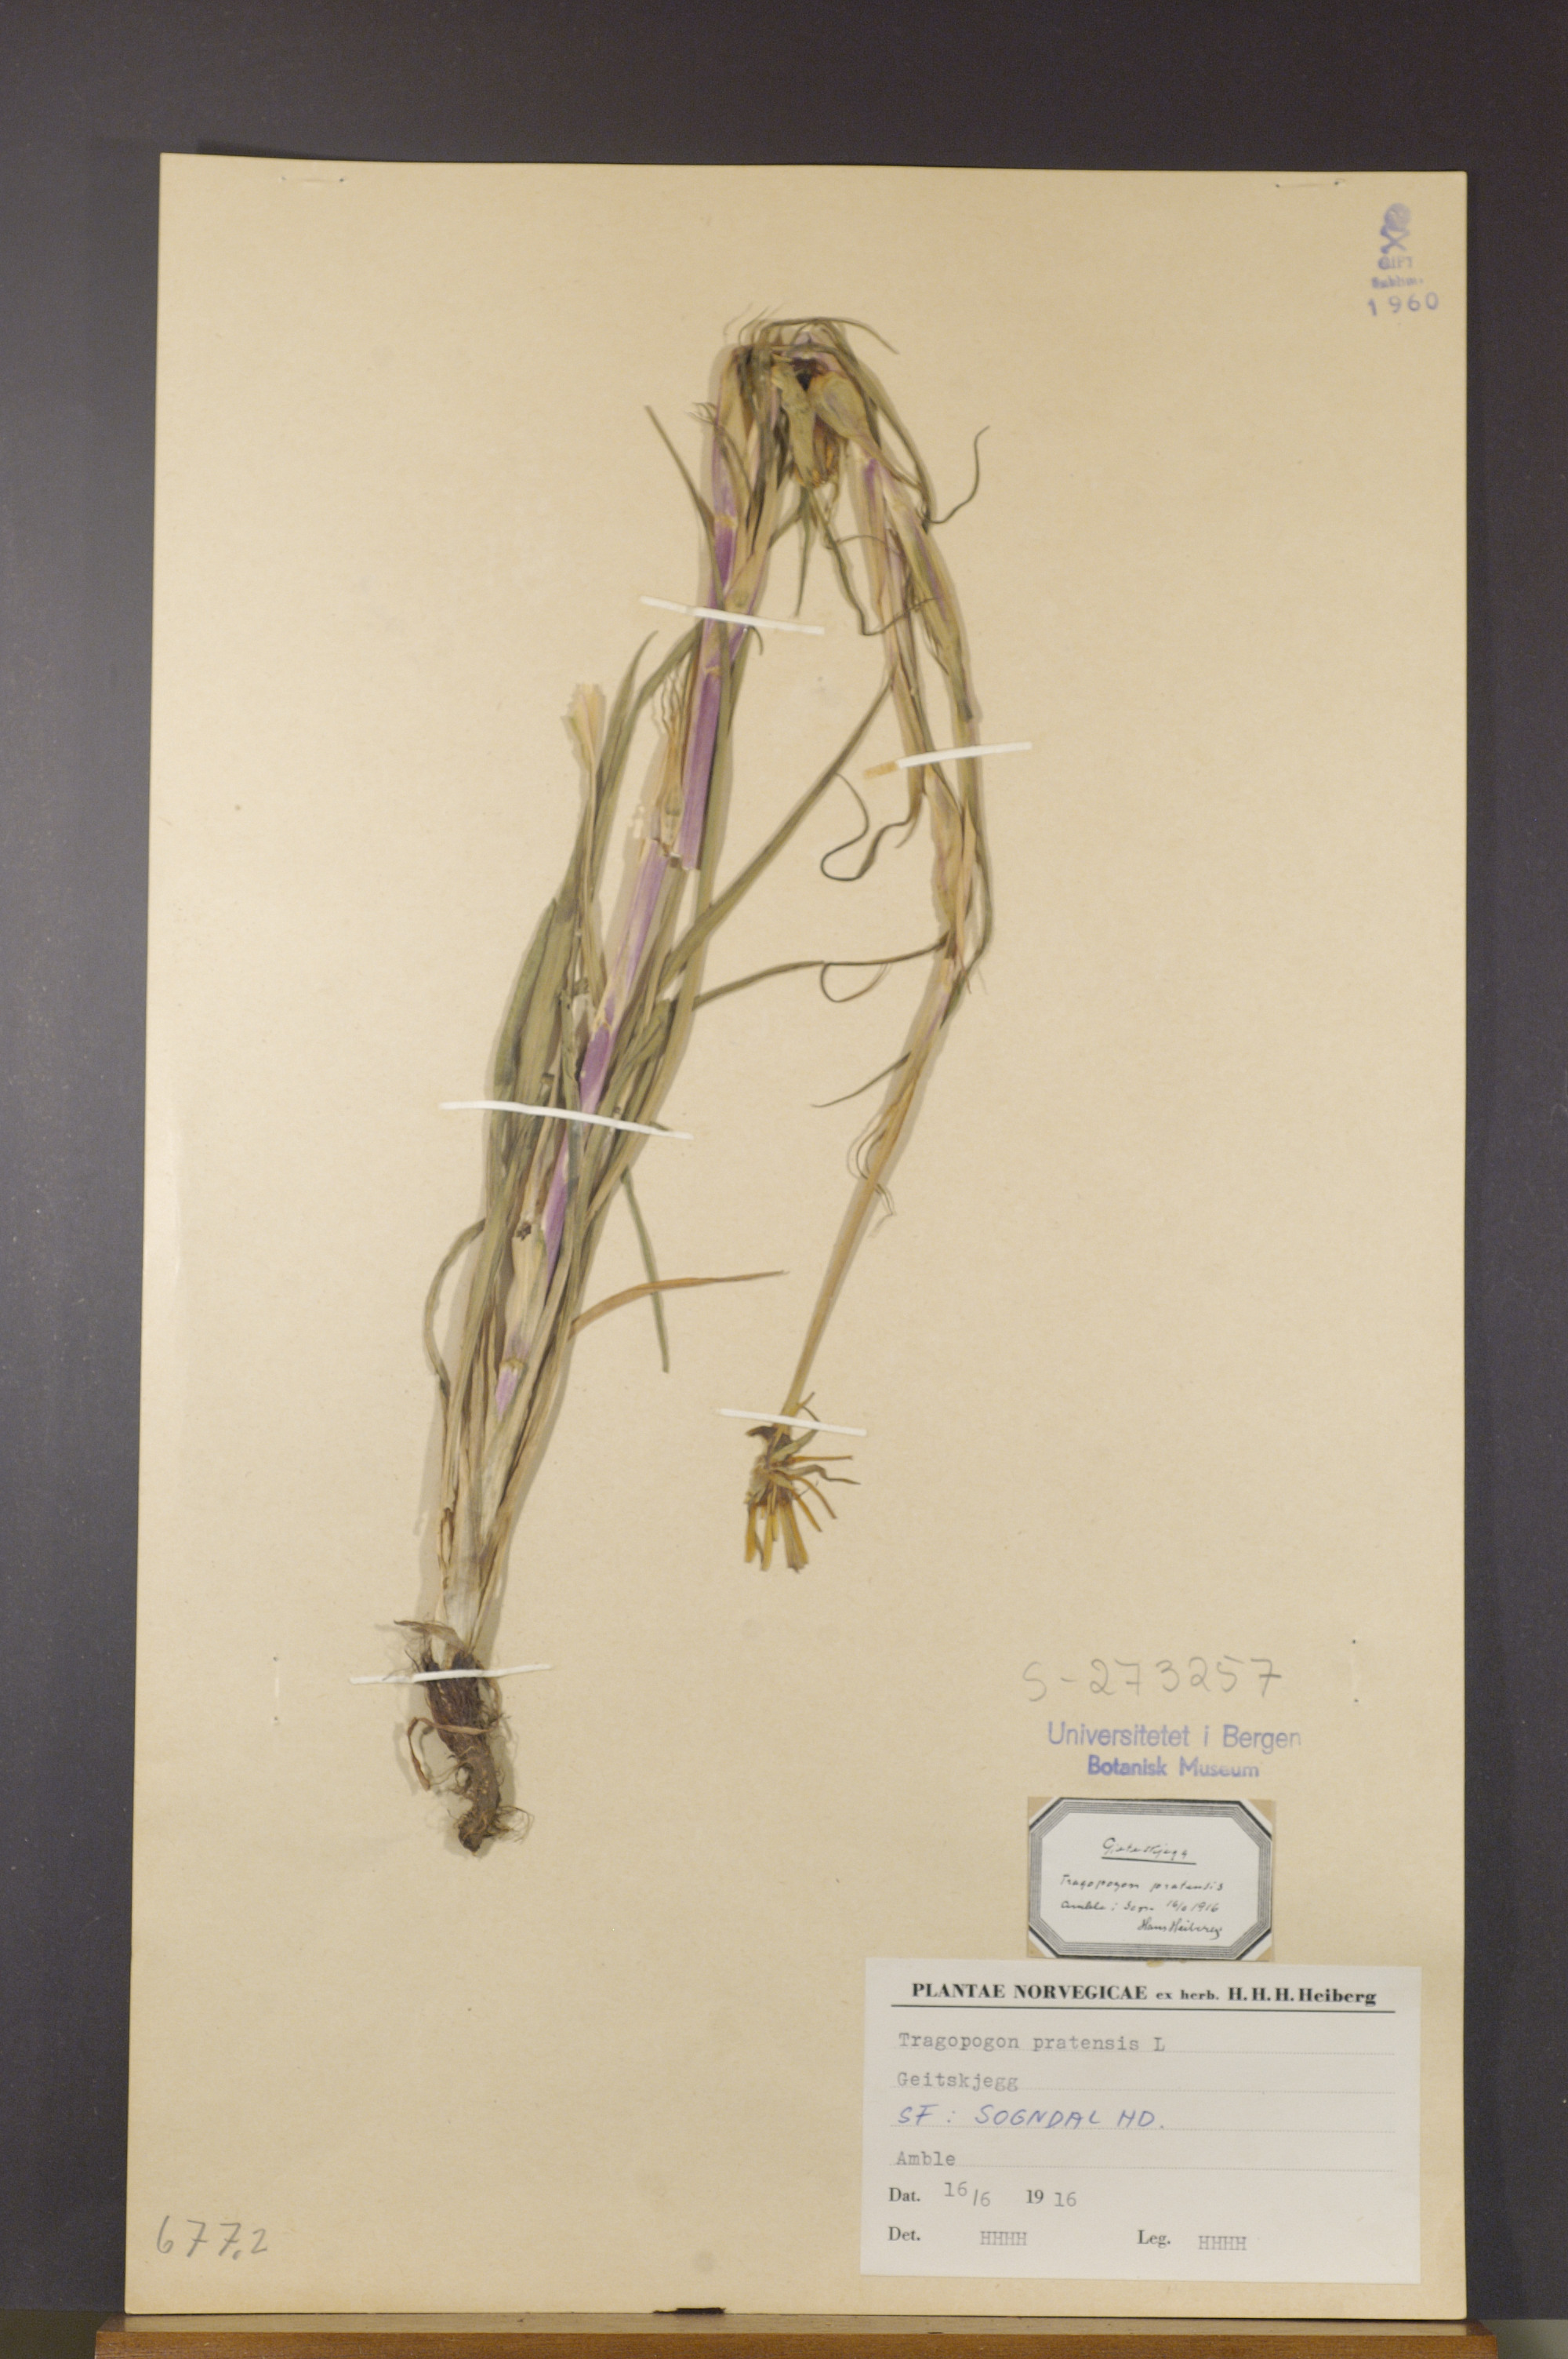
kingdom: Plantae
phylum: Tracheophyta
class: Magnoliopsida
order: Asterales
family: Asteraceae
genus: Tragopogon
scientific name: Tragopogon pratensis
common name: Goat's-beard
